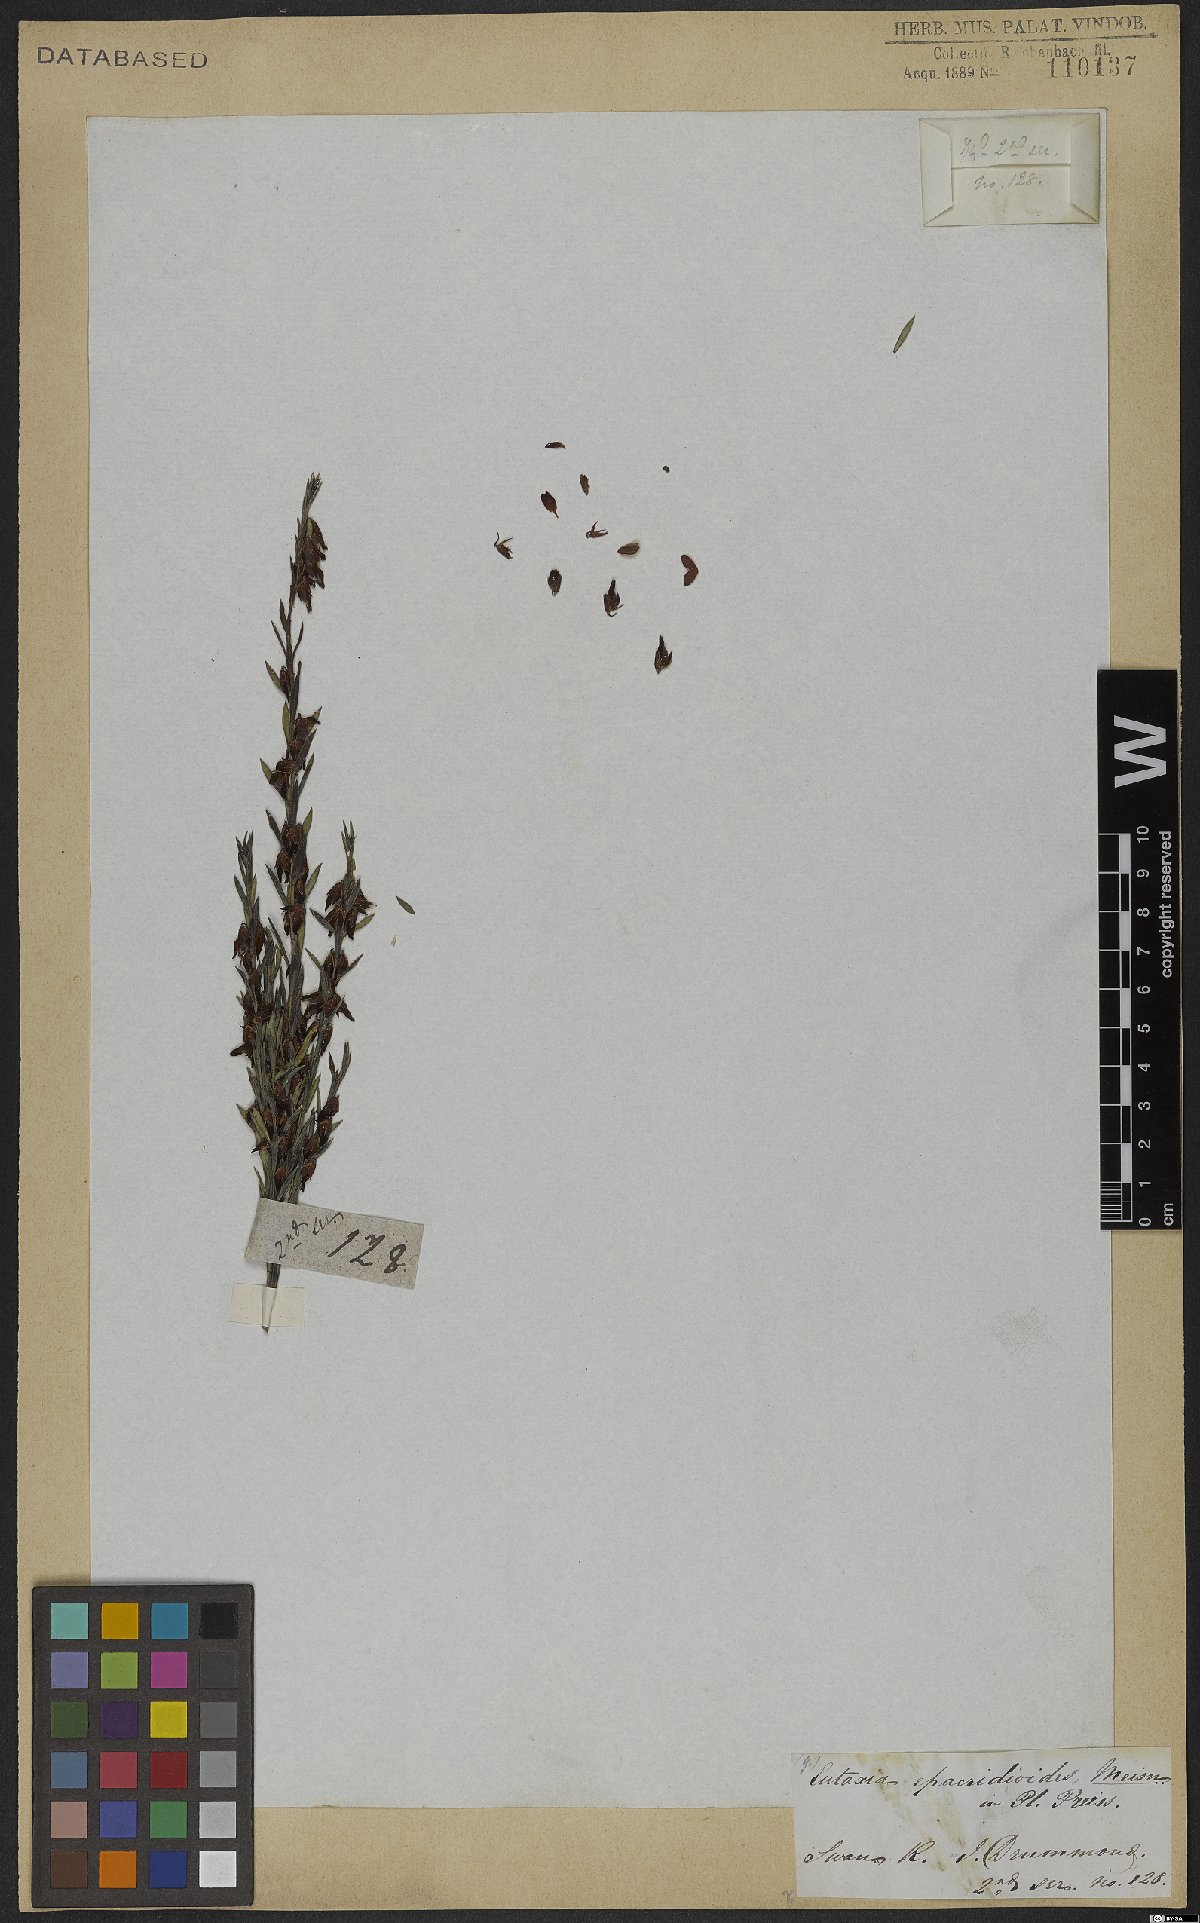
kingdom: Plantae
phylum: Tracheophyta
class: Magnoliopsida
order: Fabales
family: Fabaceae
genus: Eutaxia
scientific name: Eutaxia epacridoides
